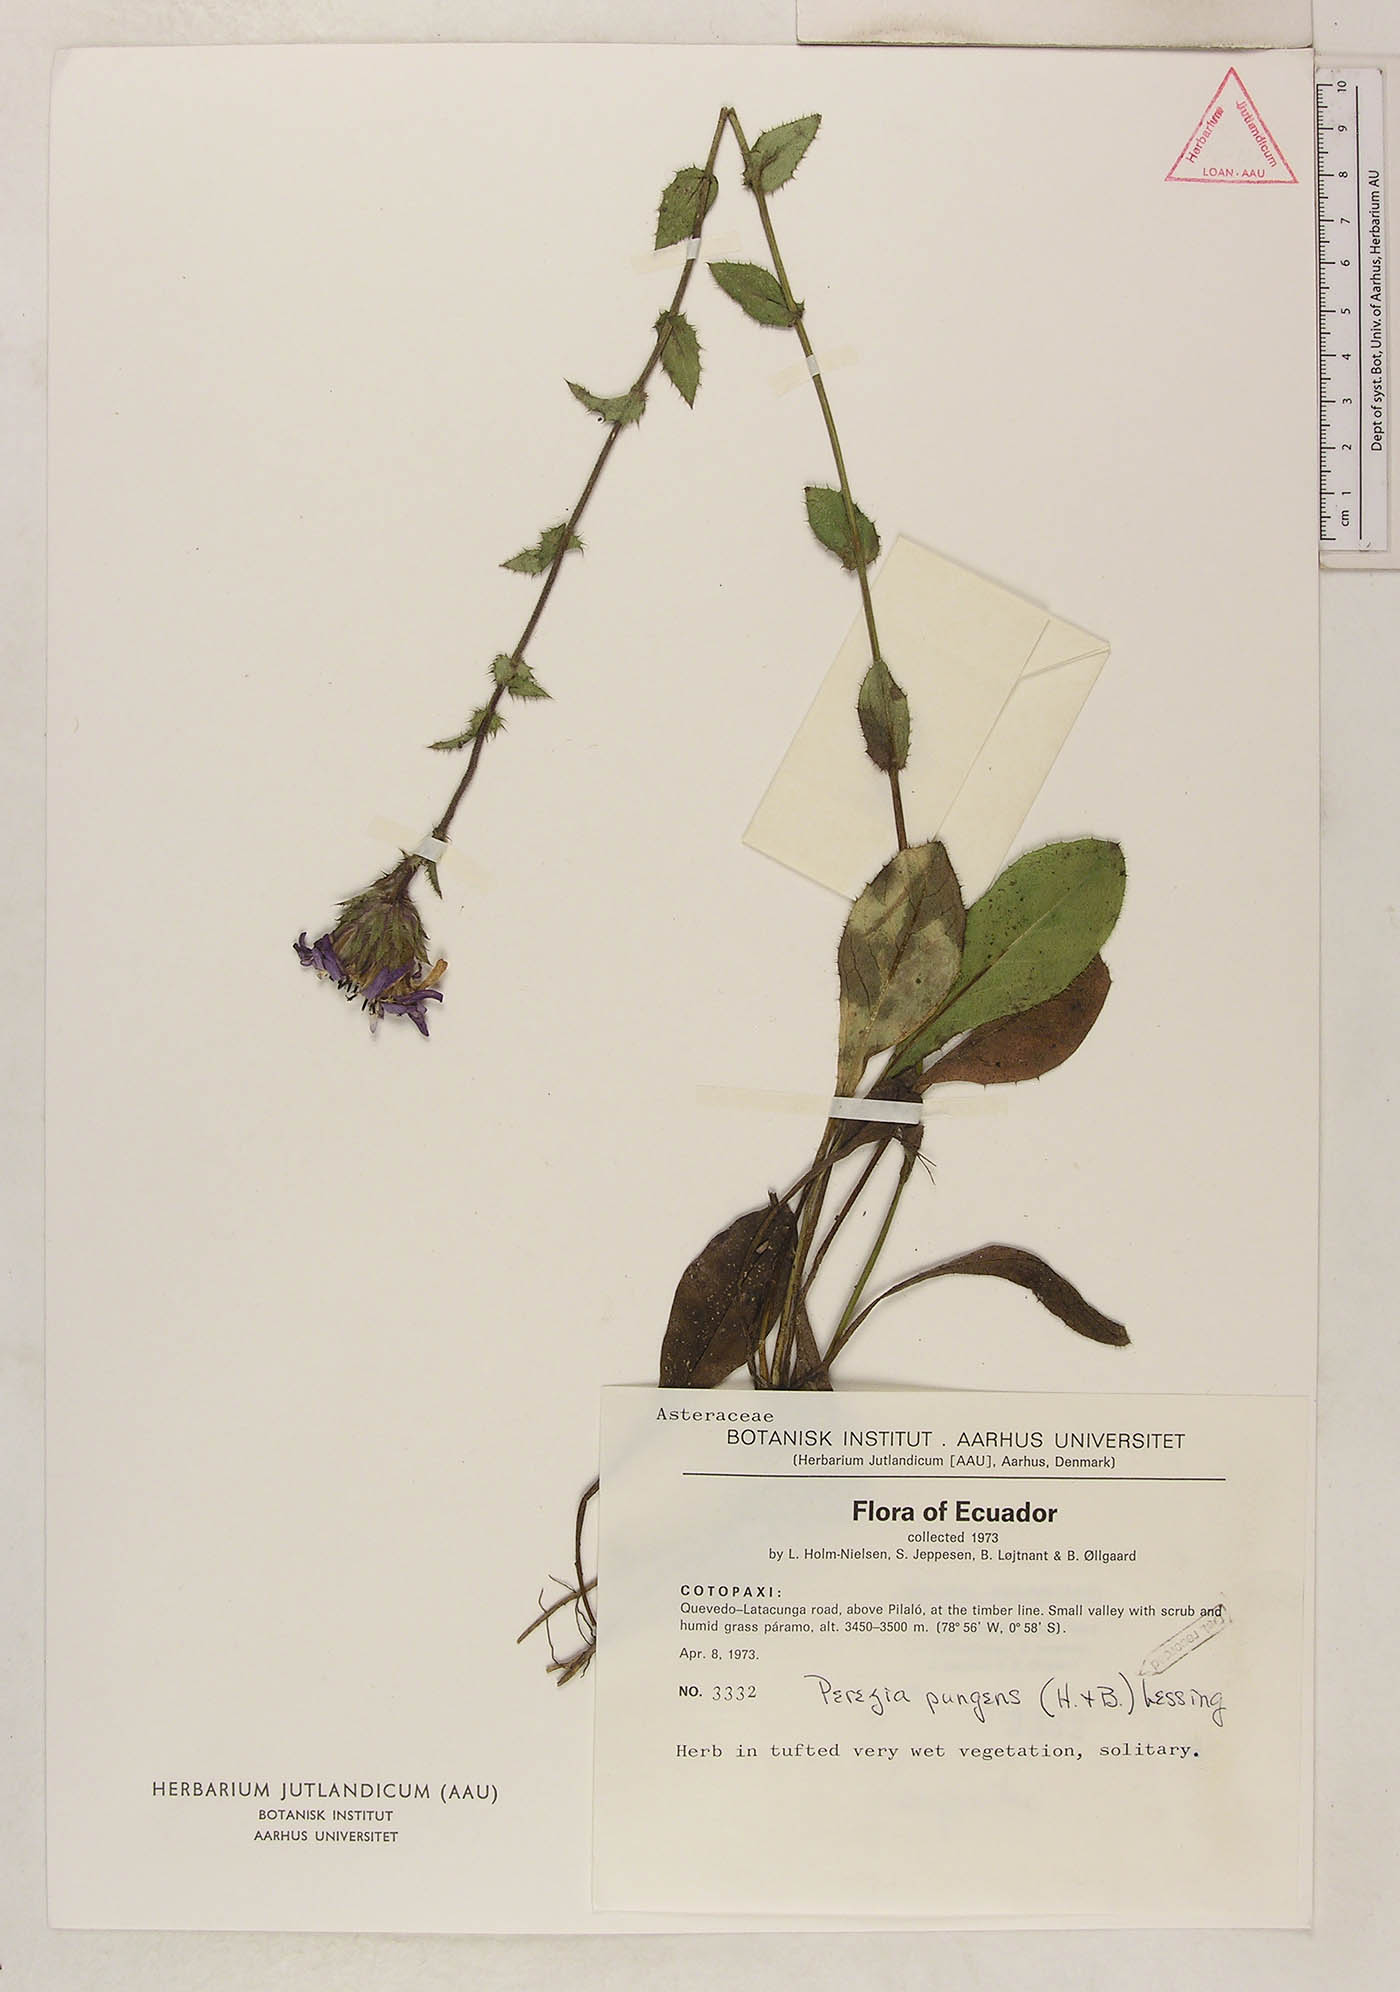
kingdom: Plantae
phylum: Tracheophyta
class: Magnoliopsida
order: Asterales
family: Asteraceae
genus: Perezia
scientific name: Perezia pungens
